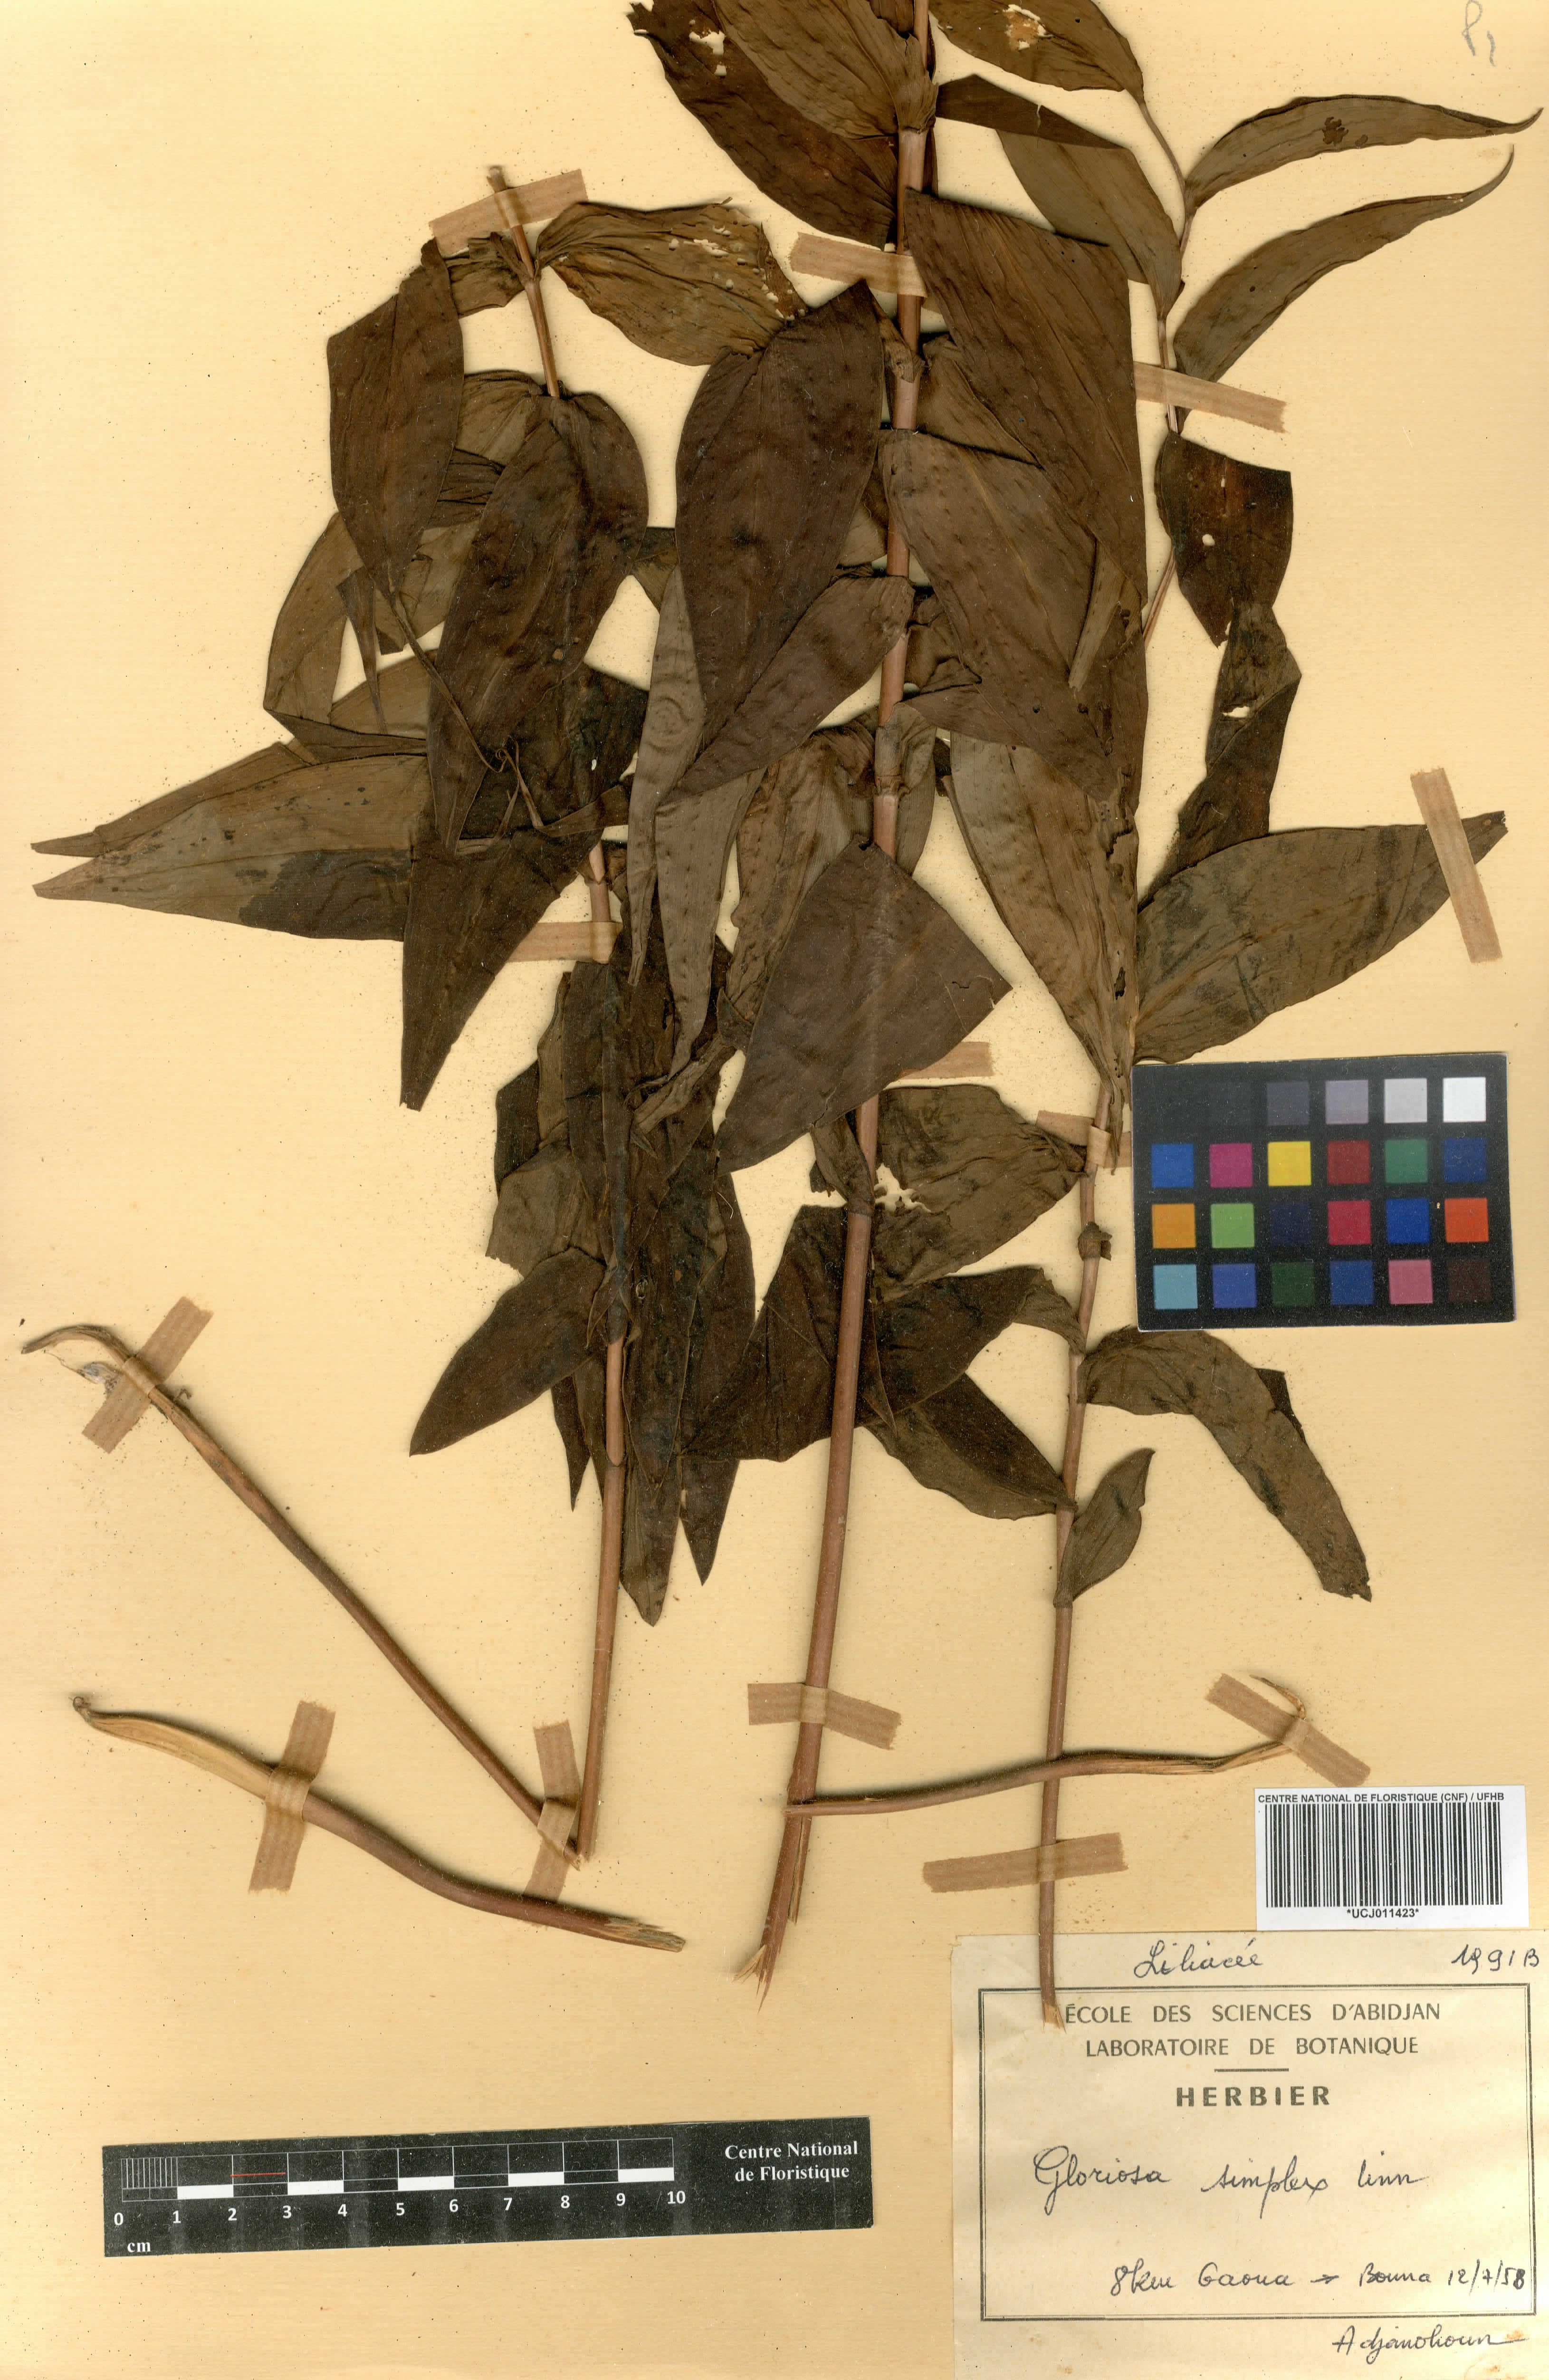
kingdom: Plantae
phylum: Tracheophyta
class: Liliopsida
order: Liliales
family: Colchicaceae
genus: Gloriosa
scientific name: Gloriosa simplex
